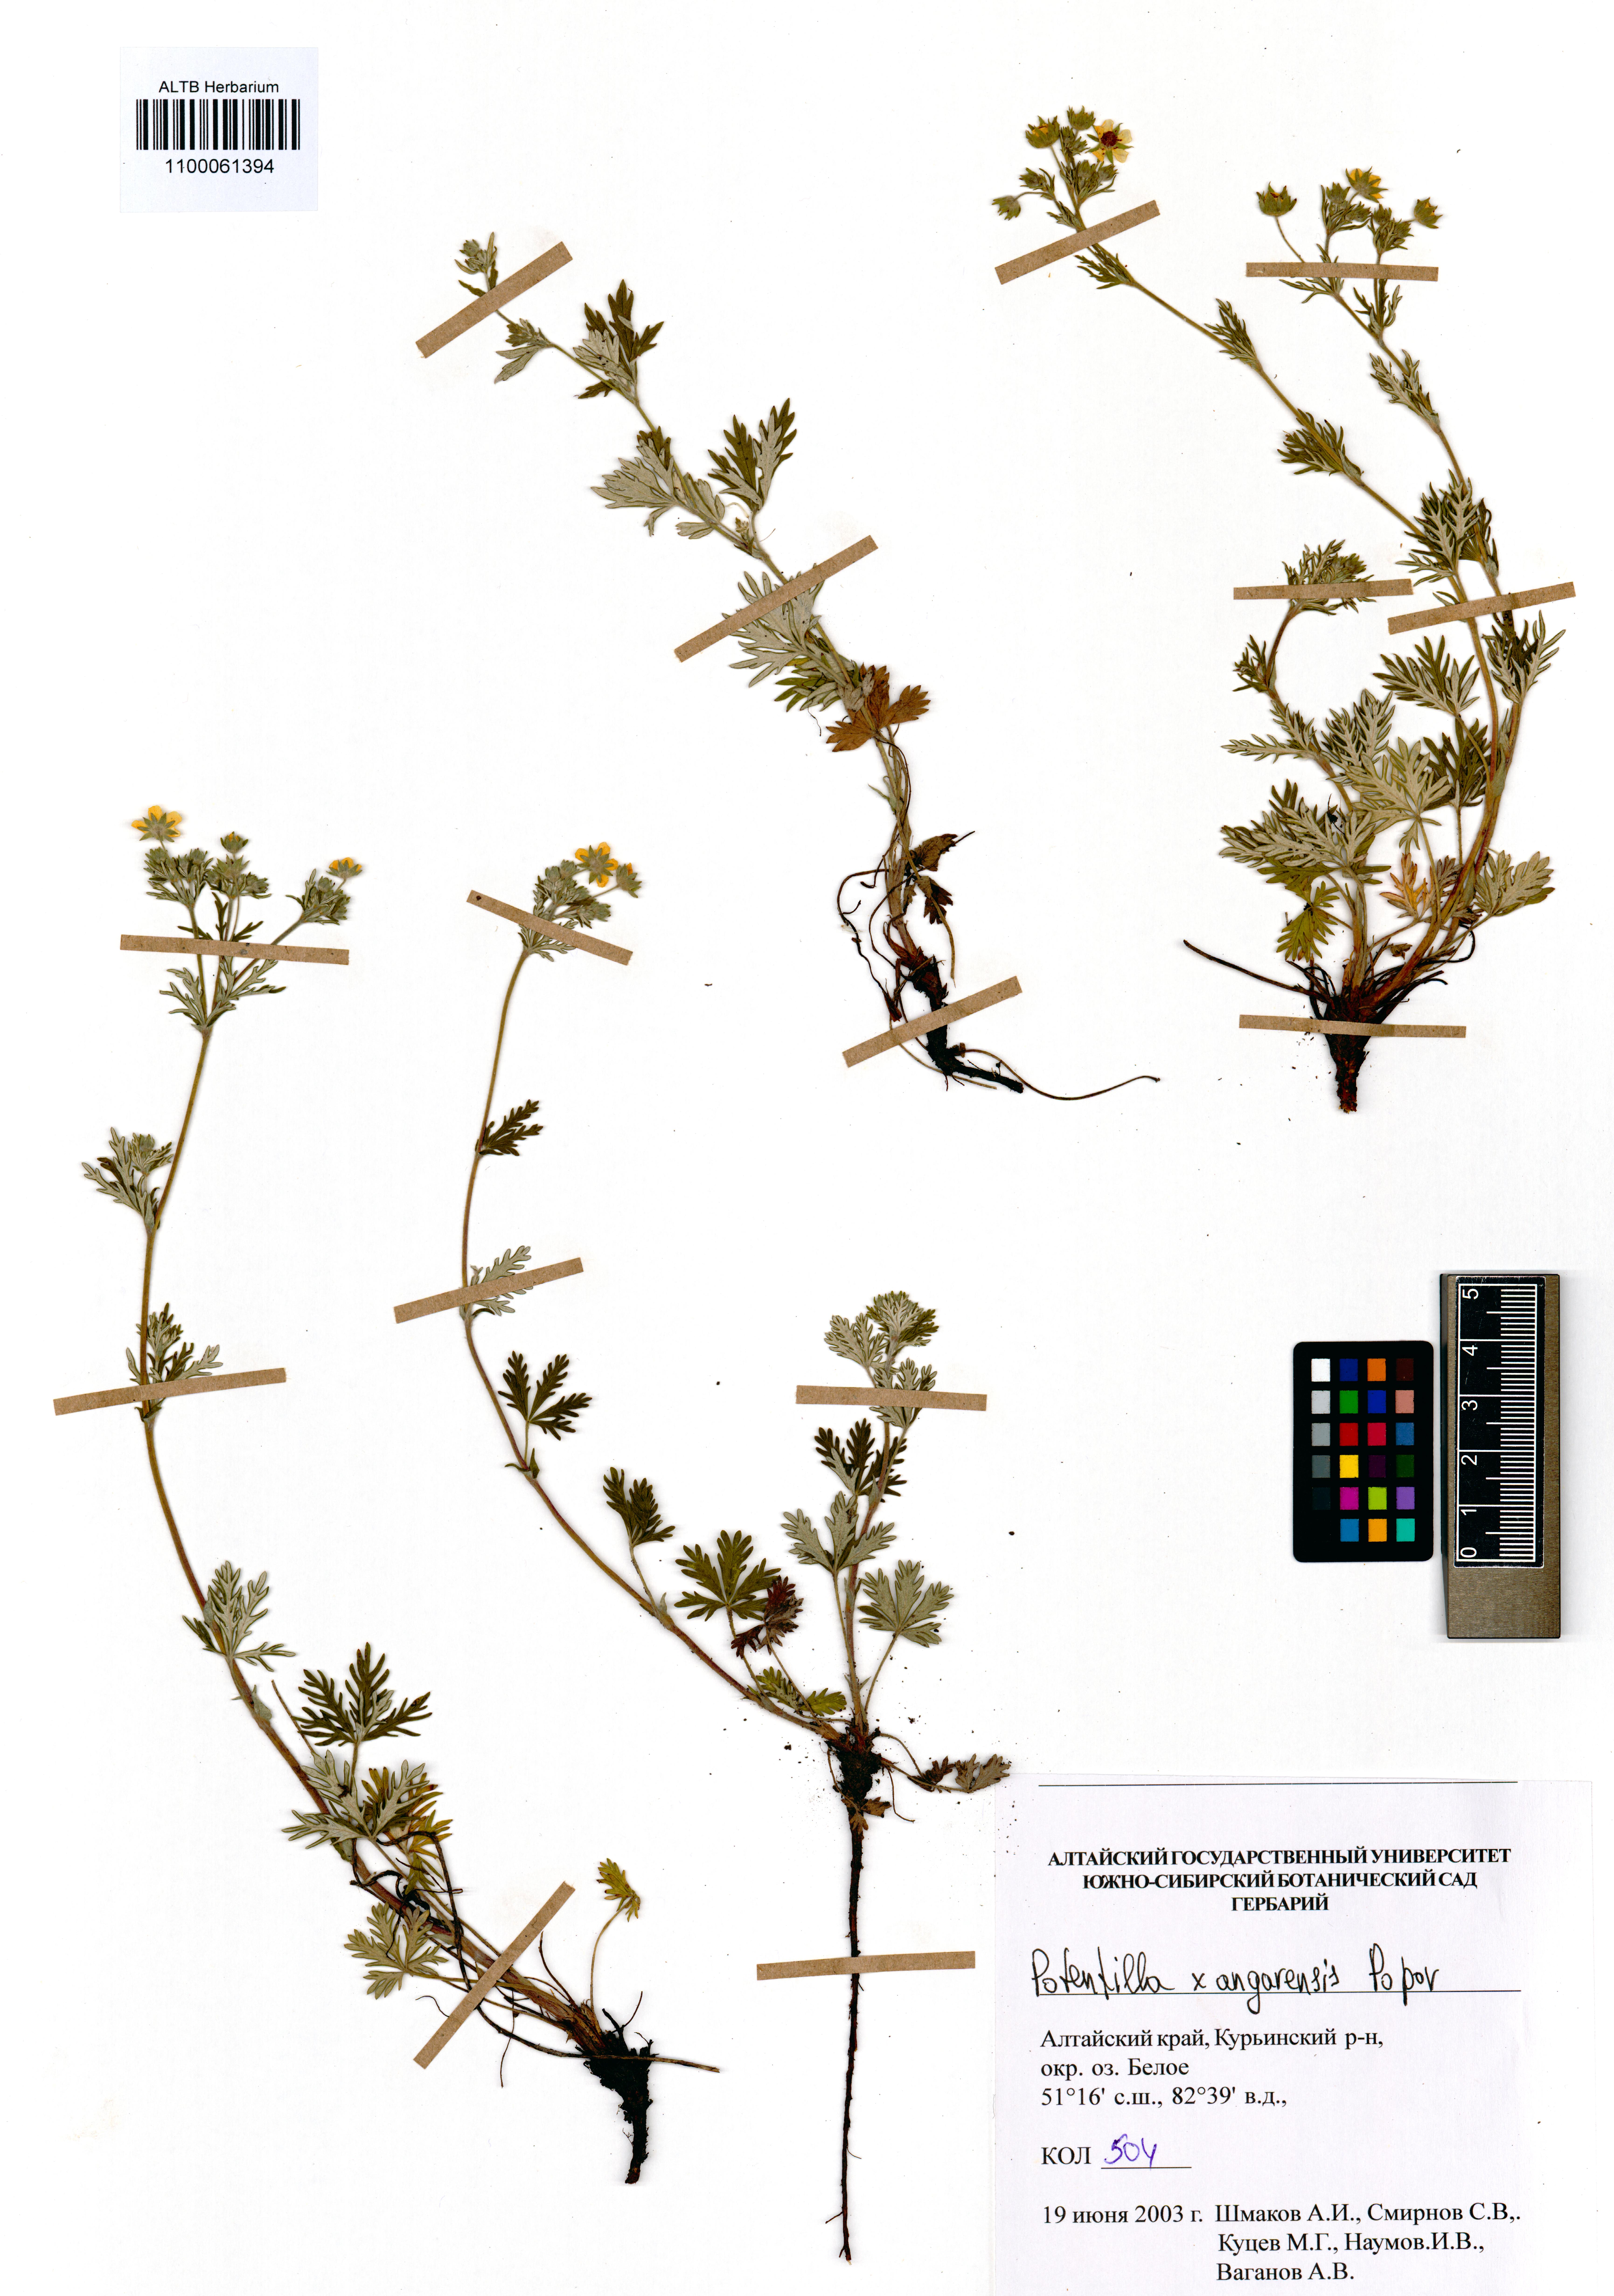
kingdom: Plantae
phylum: Tracheophyta
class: Magnoliopsida
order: Rosales
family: Rosaceae
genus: Potentilla
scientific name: Potentilla angarensis
